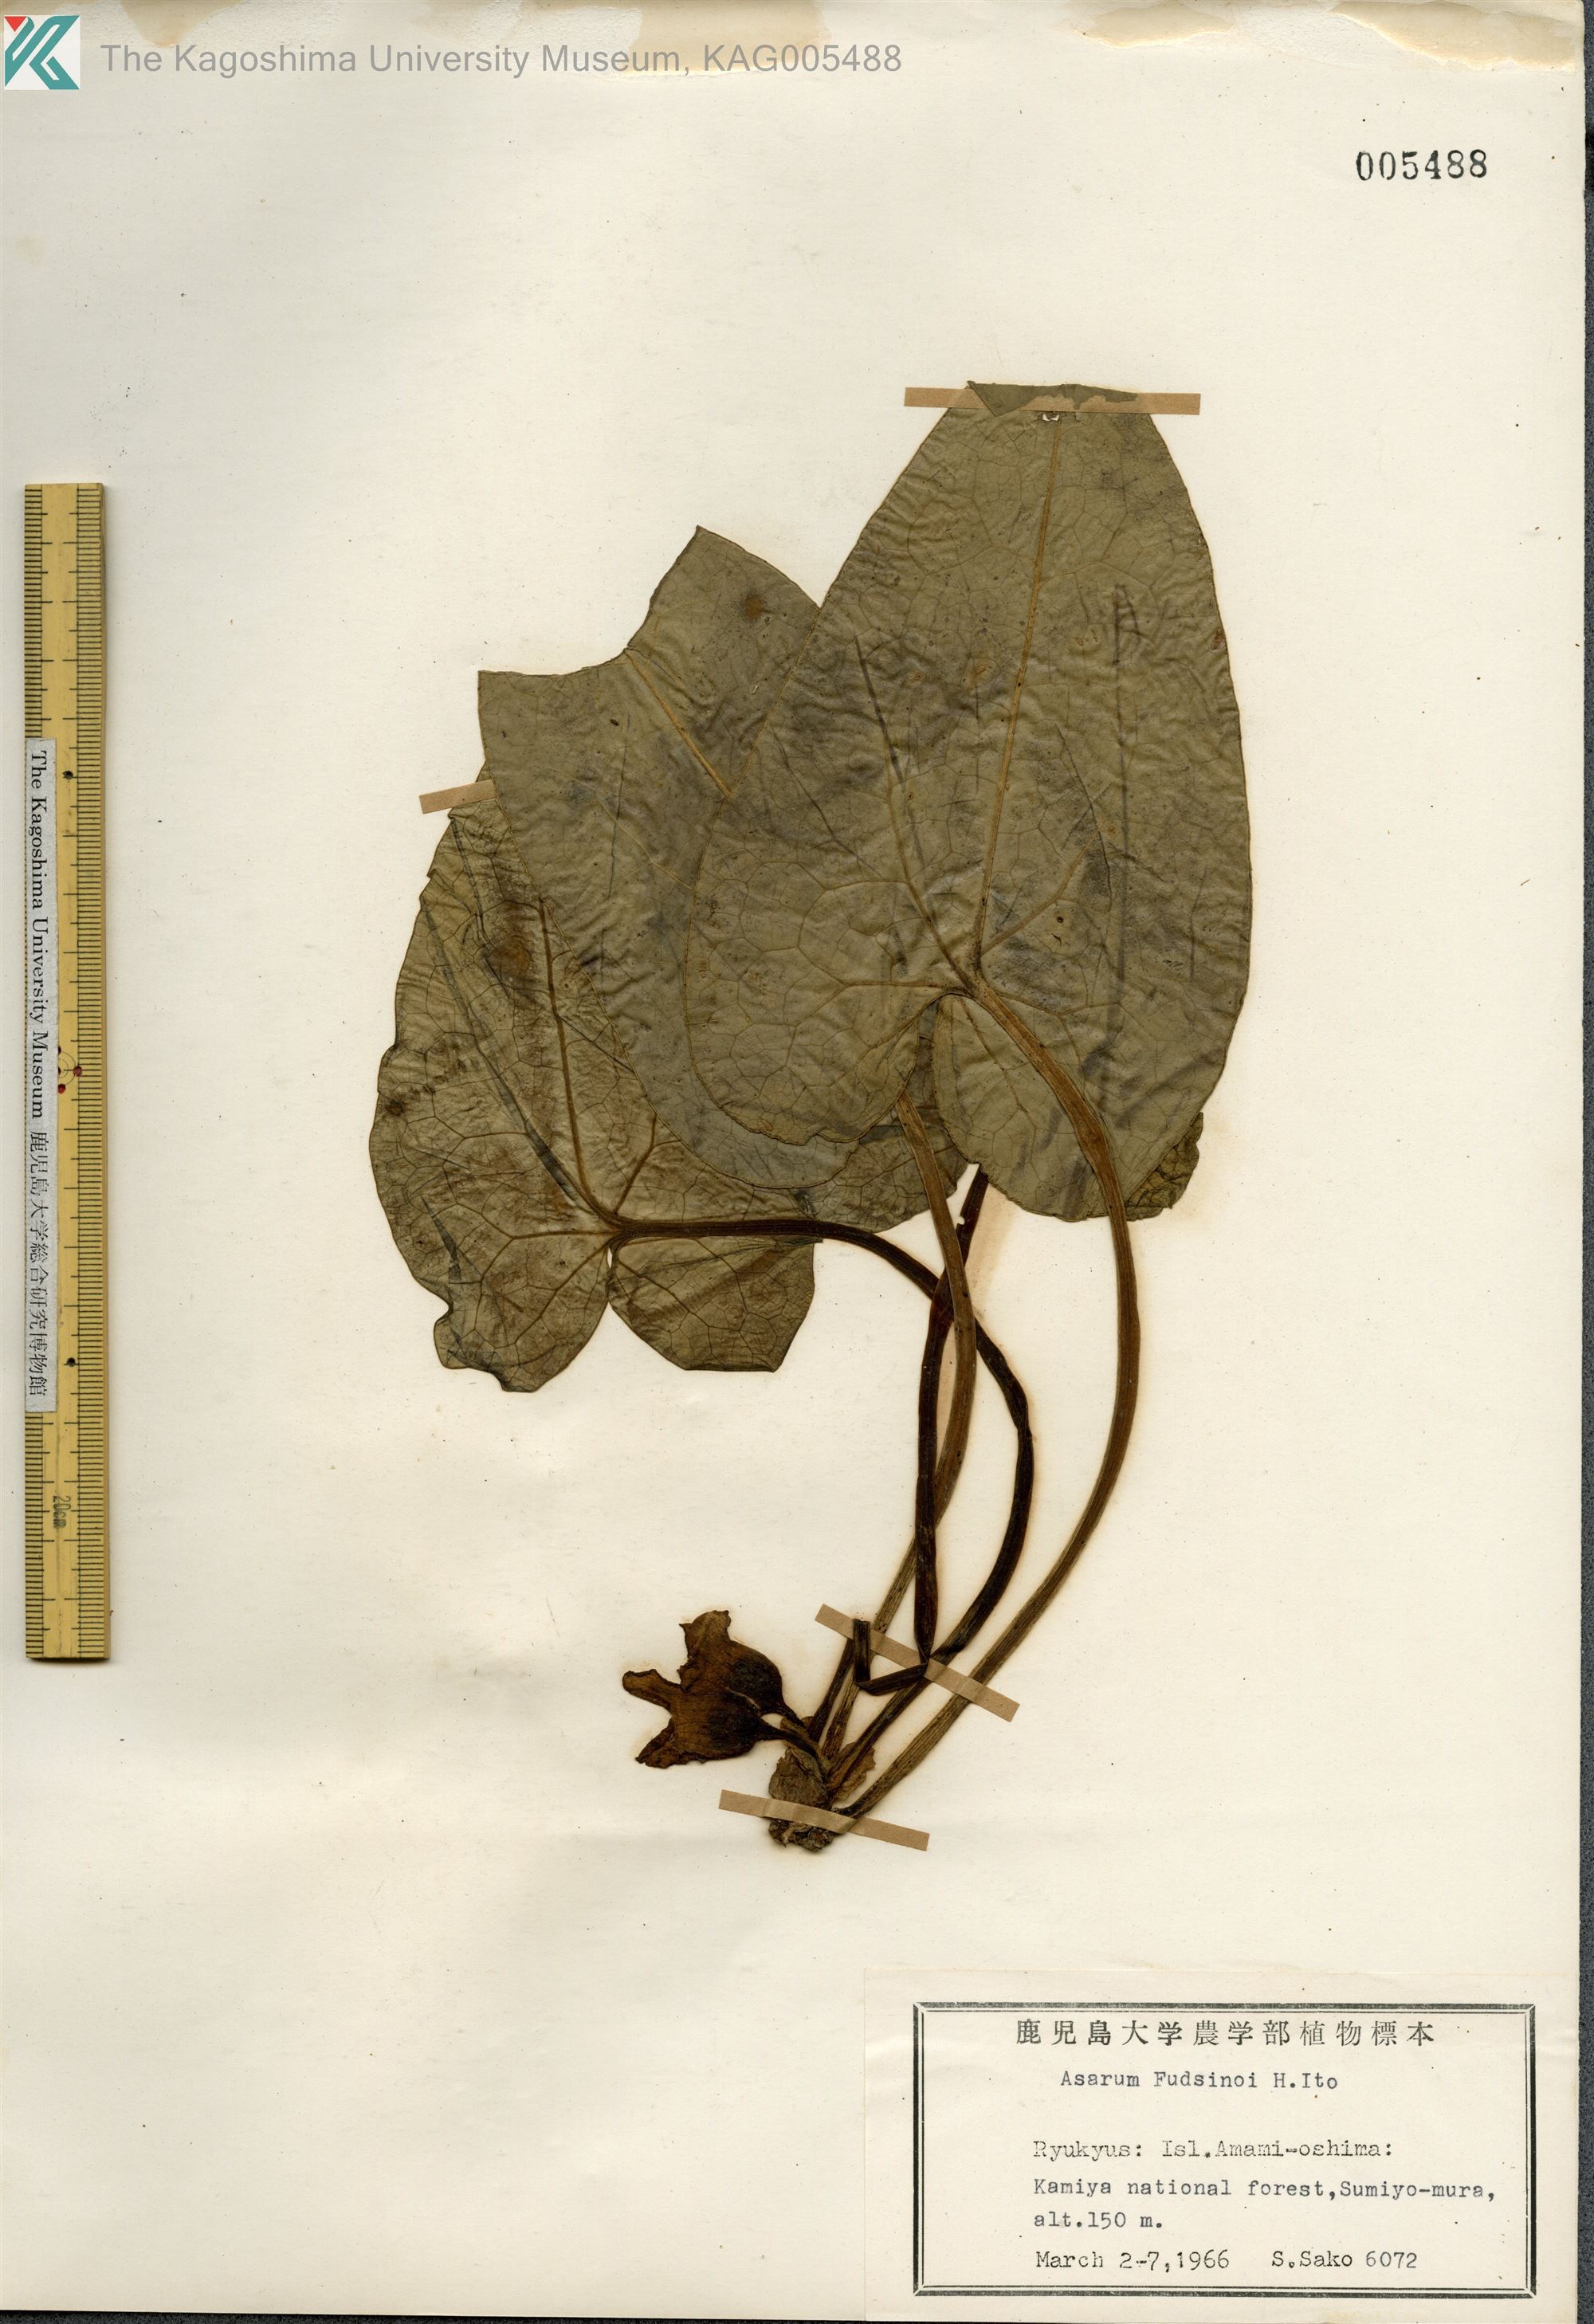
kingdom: Plantae
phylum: Tracheophyta
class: Magnoliopsida
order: Piperales
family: Aristolochiaceae
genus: Asarum
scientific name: Asarum
